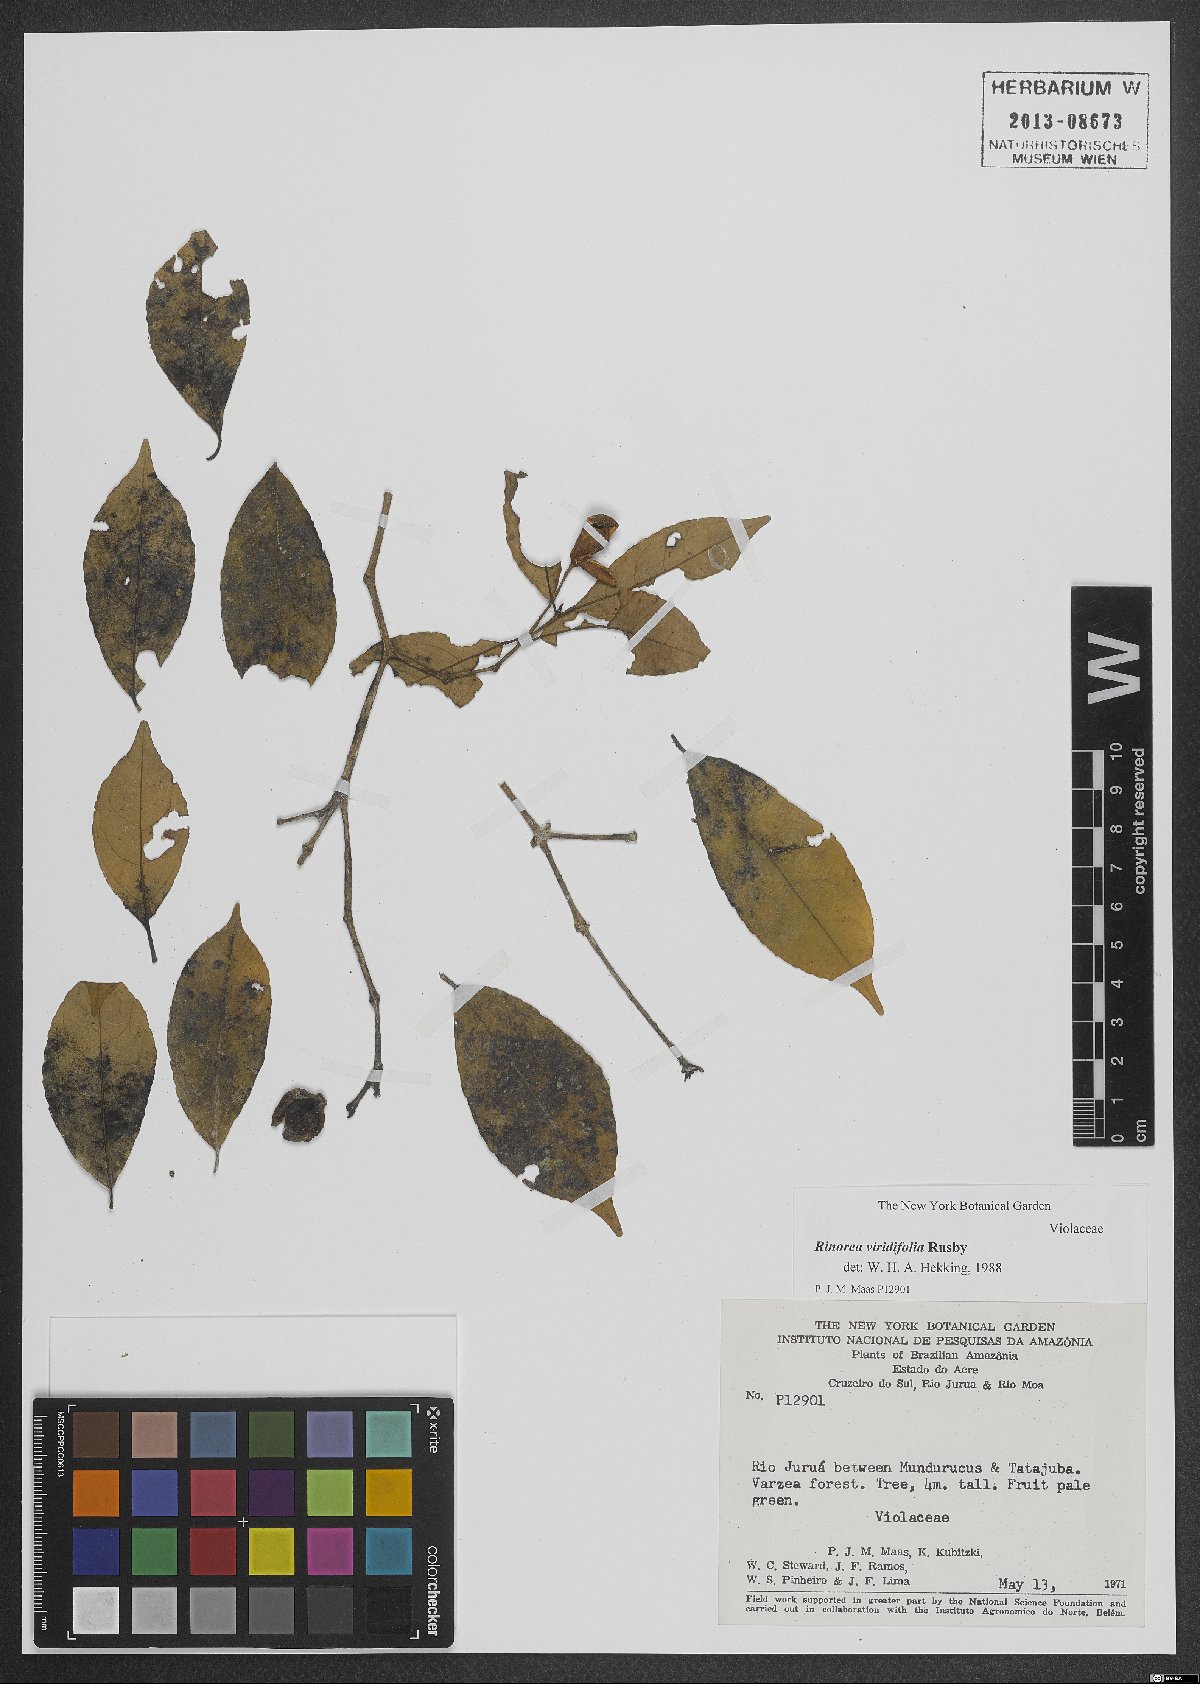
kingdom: Plantae
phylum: Tracheophyta
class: Magnoliopsida
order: Malpighiales
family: Violaceae
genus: Rinorea
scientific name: Rinorea viridifolia
